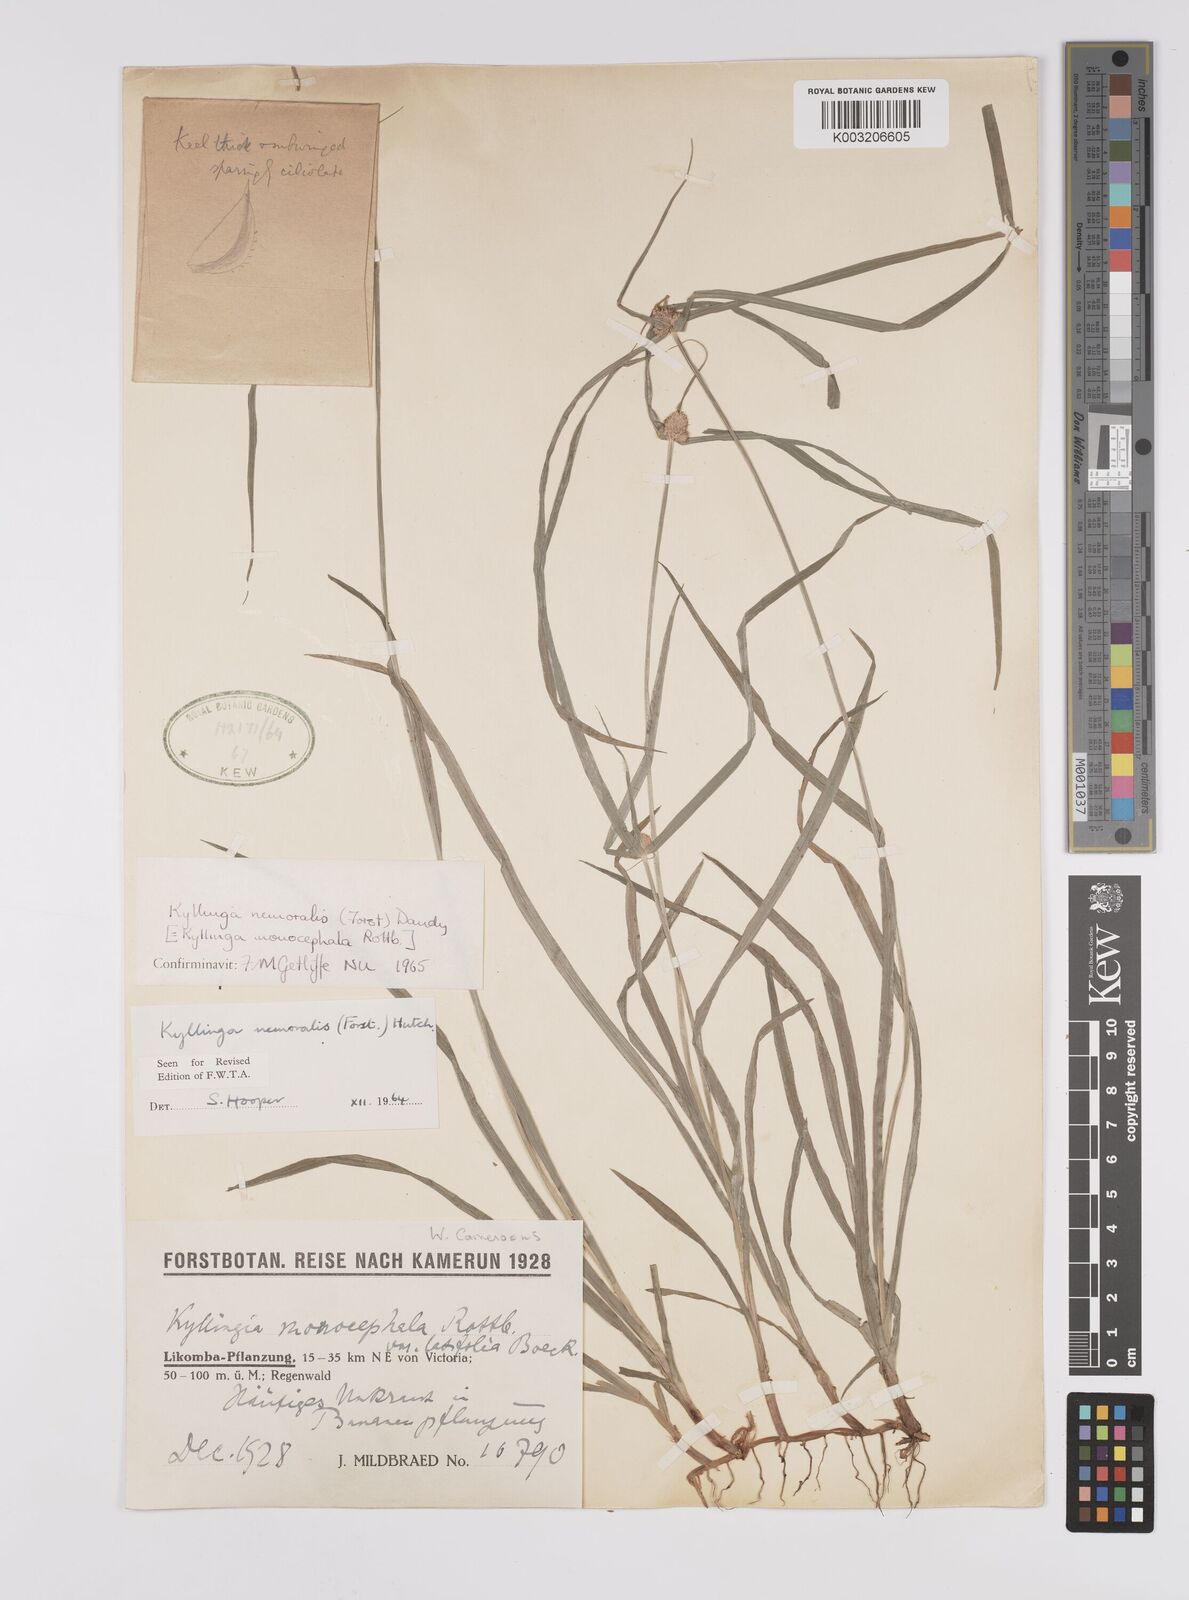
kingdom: Plantae
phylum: Tracheophyta
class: Liliopsida
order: Poales
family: Cyperaceae
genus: Cyperus
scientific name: Cyperus nemoralis
